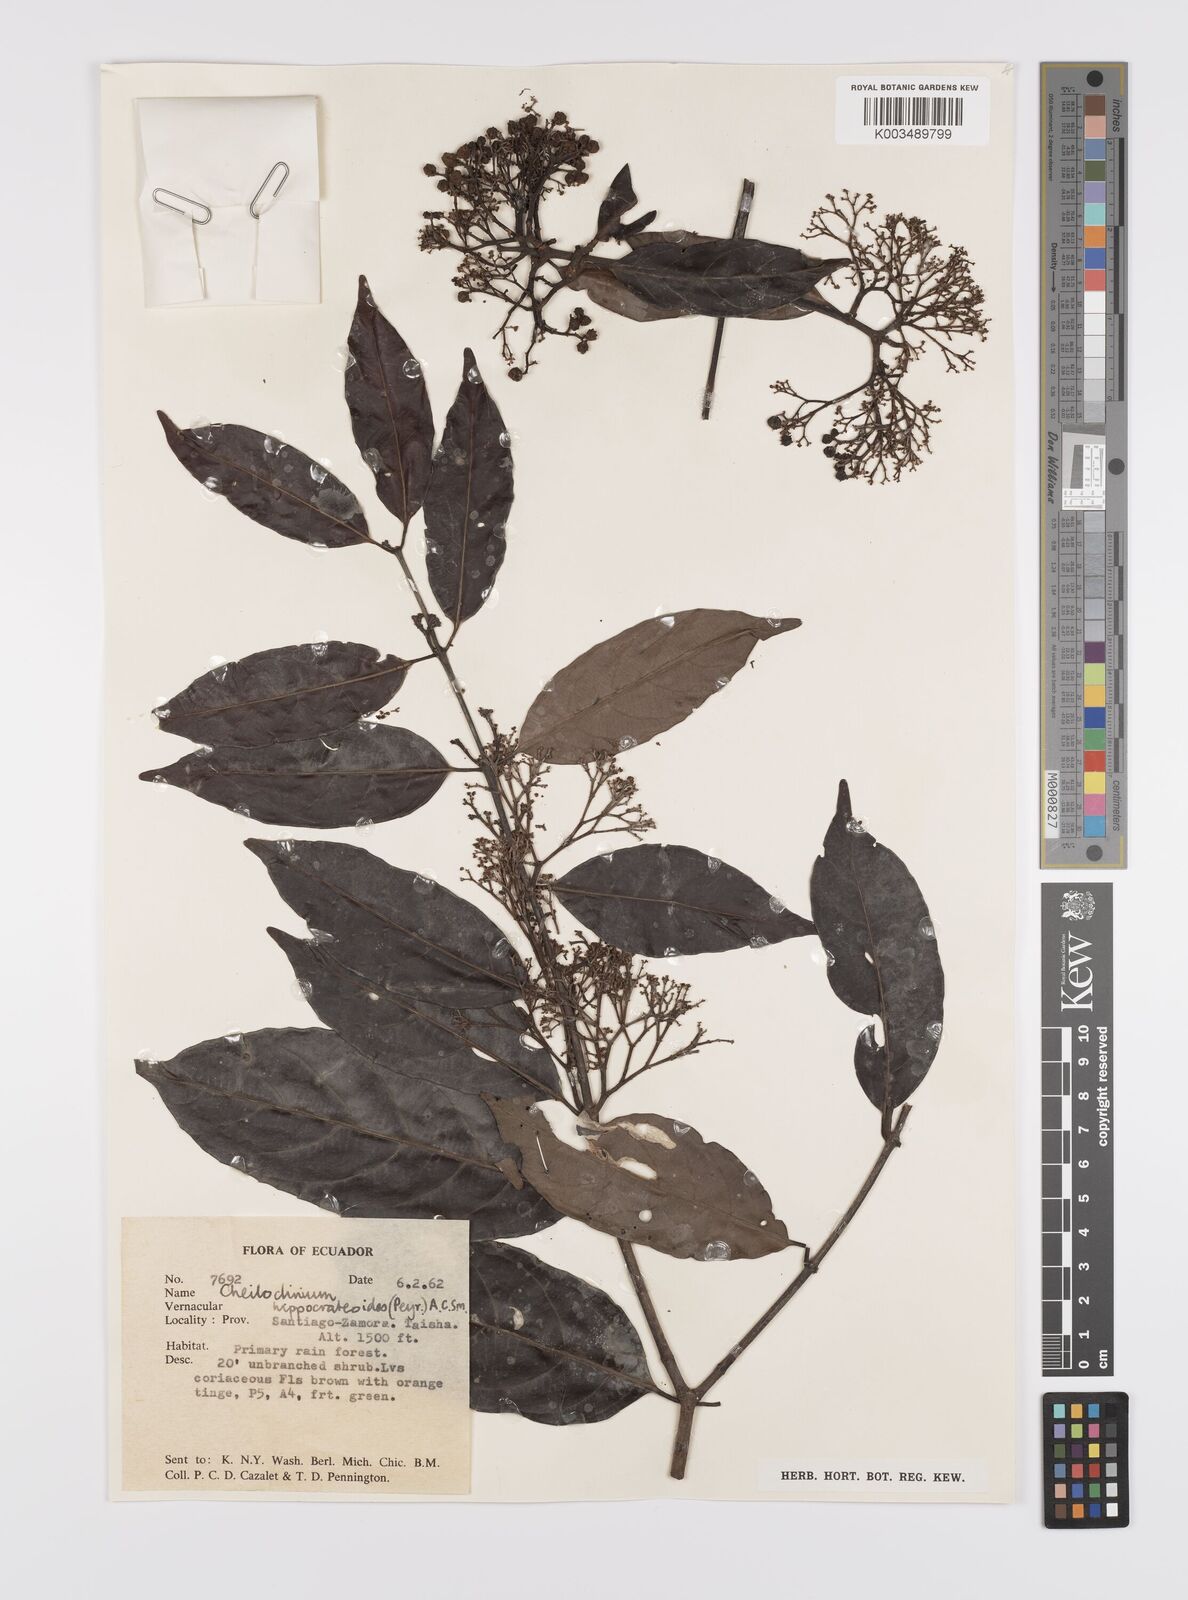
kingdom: Plantae
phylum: Tracheophyta
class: Magnoliopsida
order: Celastrales
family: Celastraceae
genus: Cheiloclinium
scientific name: Cheiloclinium hippocrateoides
